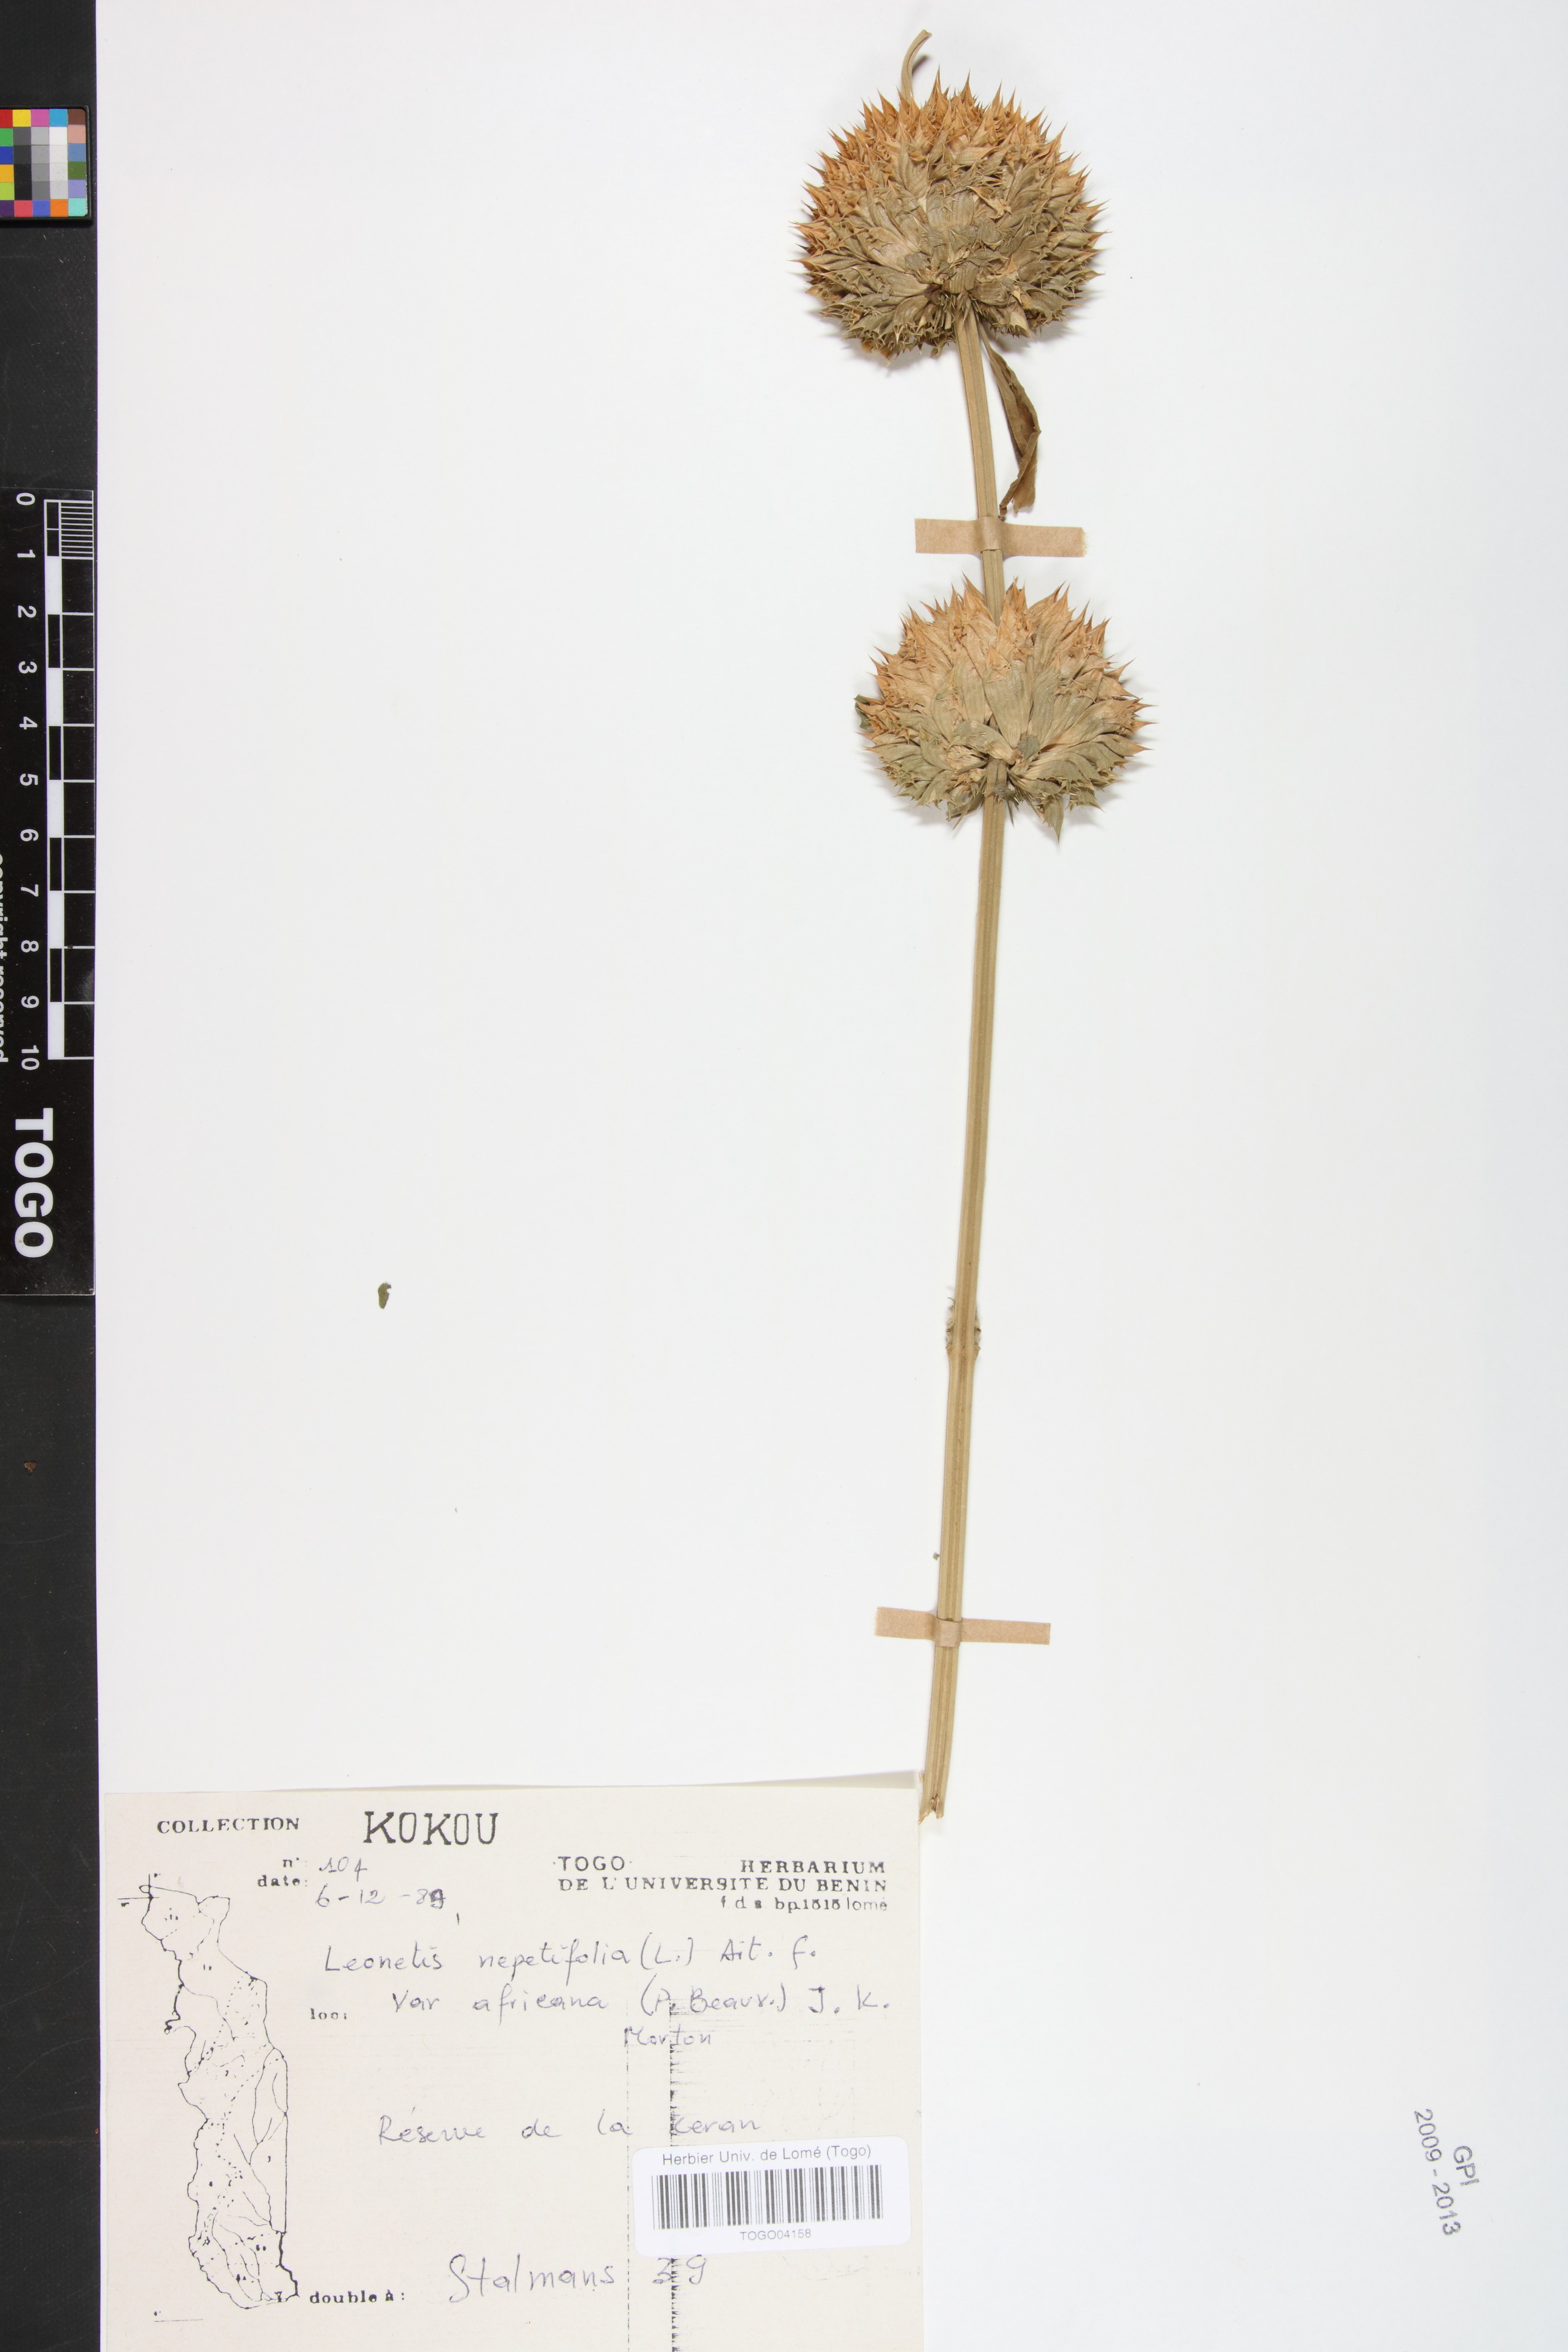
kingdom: Plantae
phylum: Tracheophyta
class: Magnoliopsida
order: Lamiales
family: Lamiaceae
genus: Leonotis
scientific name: Leonotis nepetifolia
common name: Christmas candlestick
